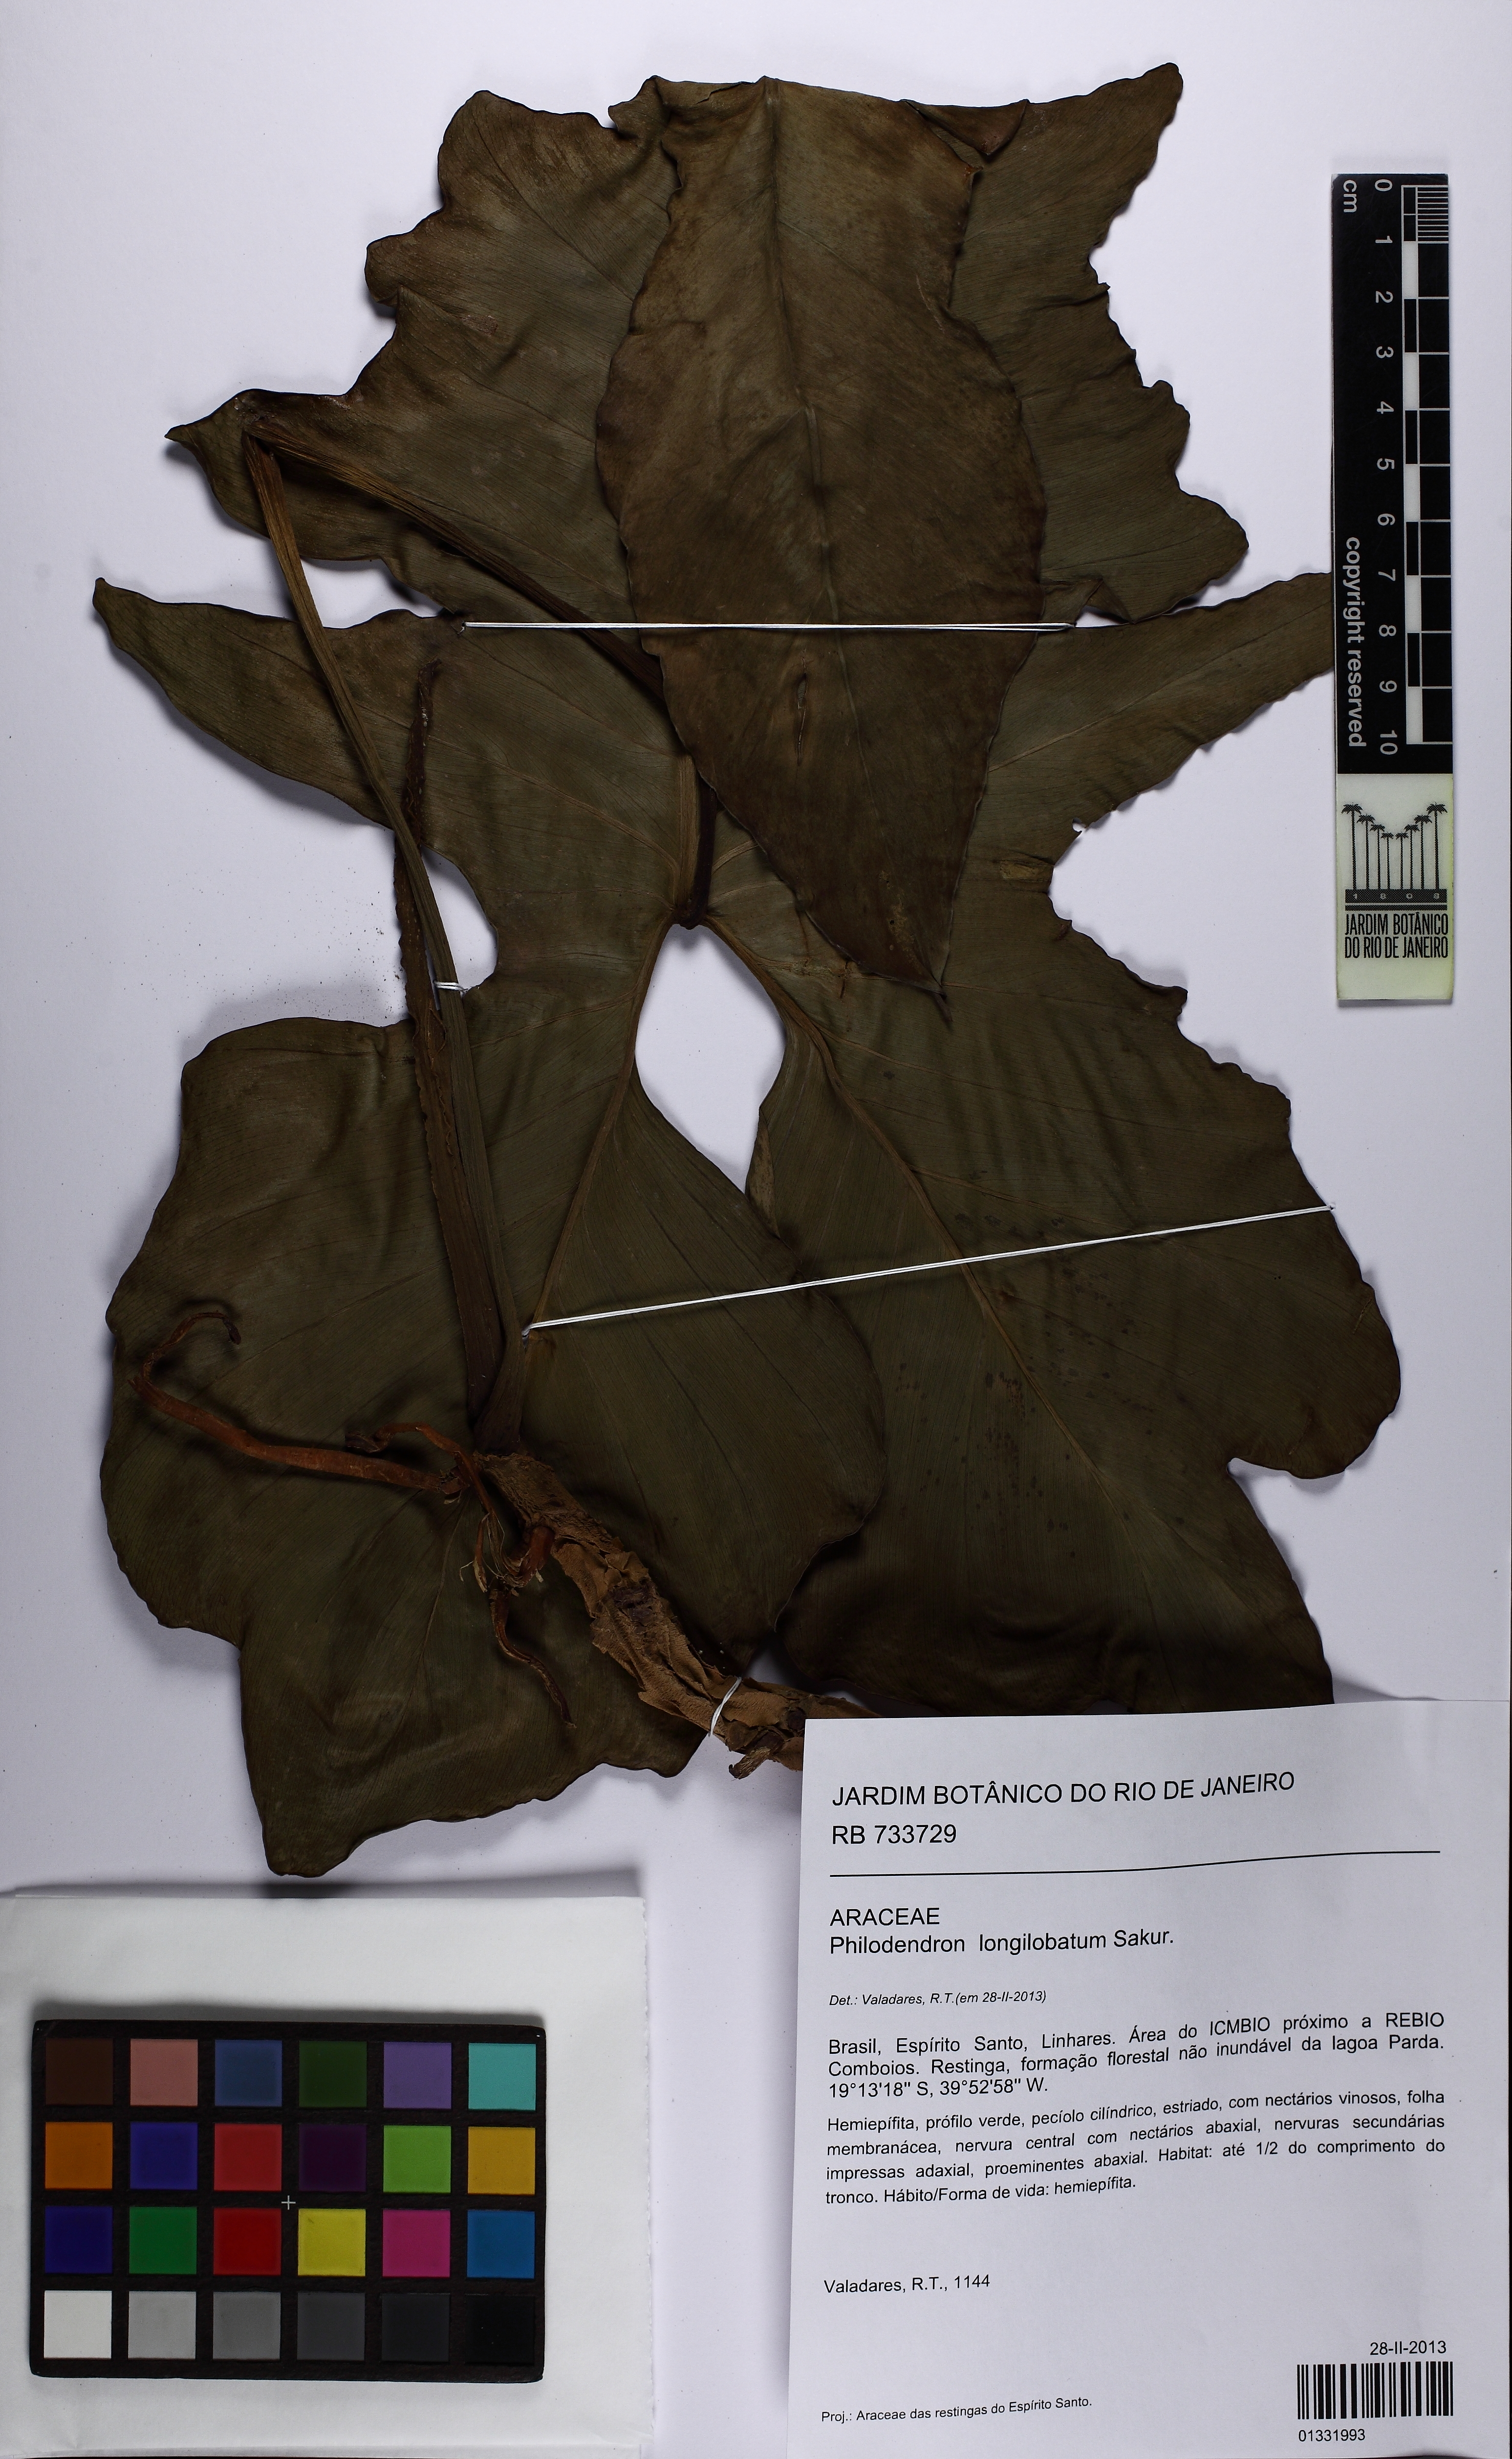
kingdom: Plantae
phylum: Tracheophyta
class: Liliopsida
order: Alismatales
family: Araceae
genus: Philodendron
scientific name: Philodendron longilobatum
